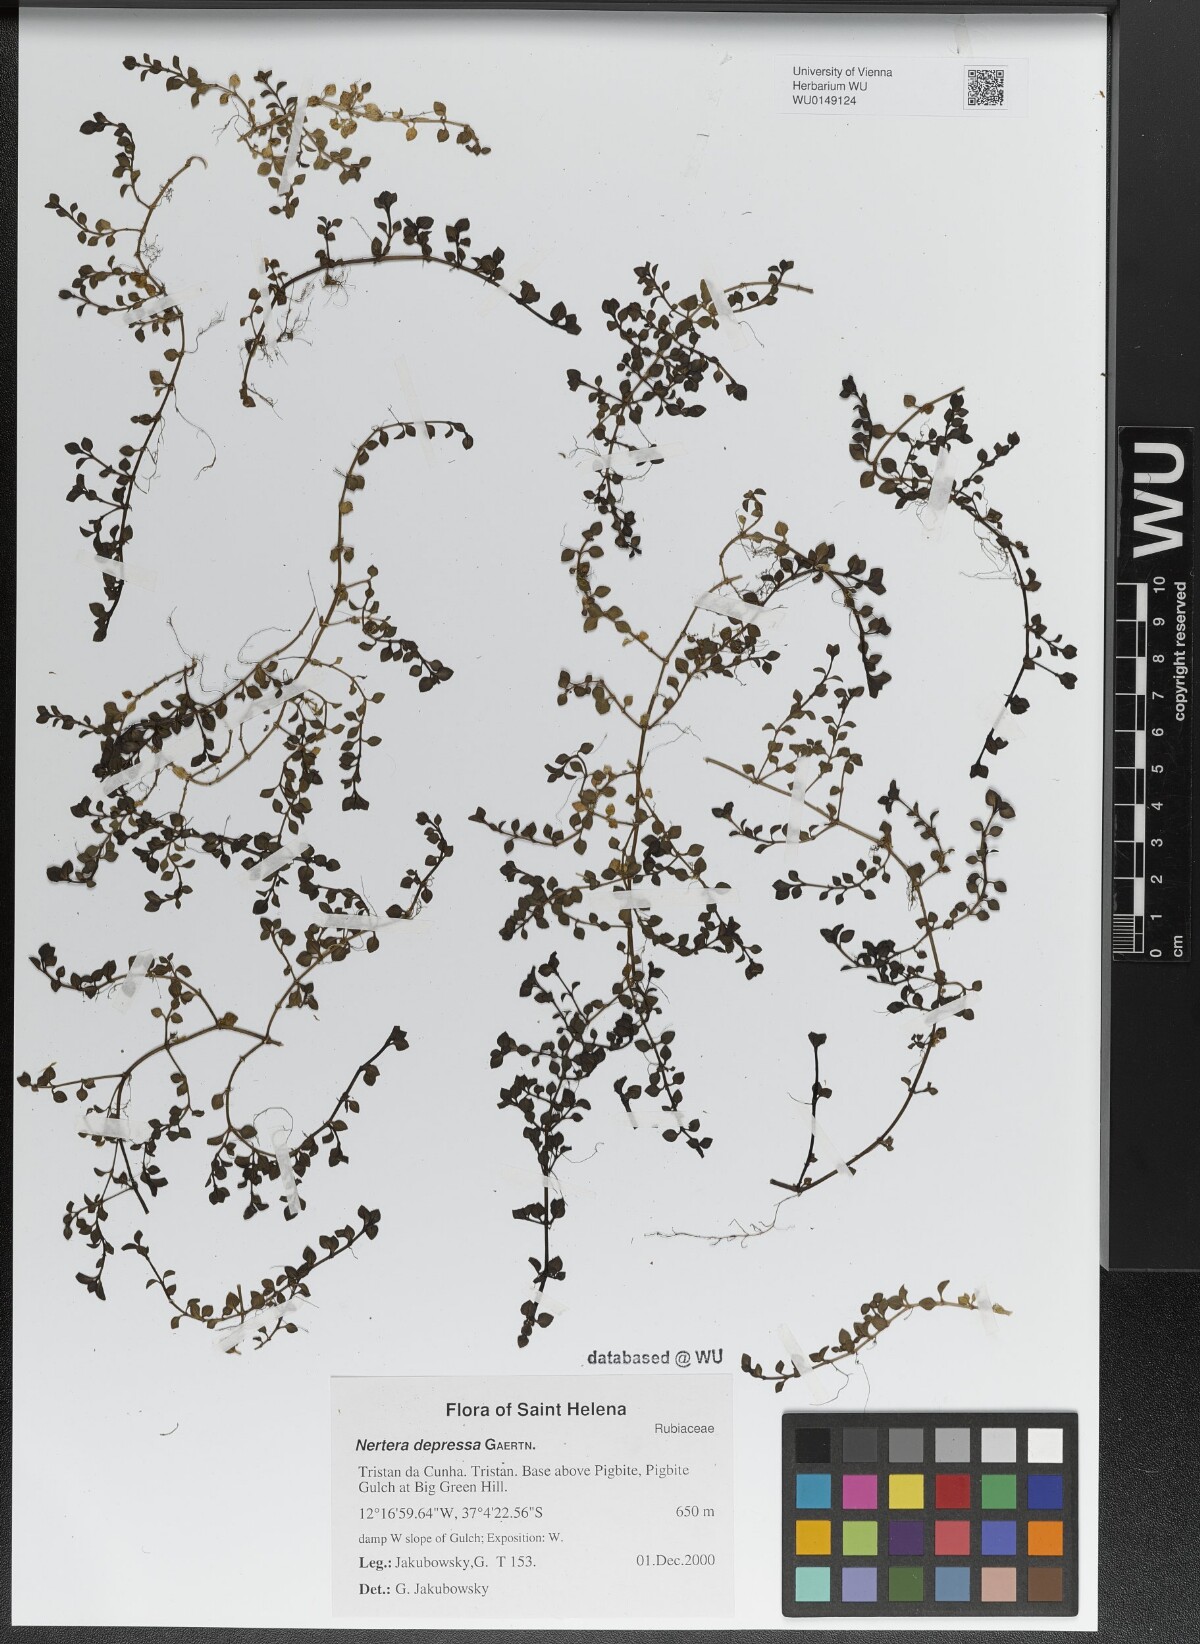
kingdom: Plantae
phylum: Tracheophyta
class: Magnoliopsida
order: Gentianales
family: Rubiaceae
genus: Nertera
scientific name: Nertera granadensis
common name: Beadplant
